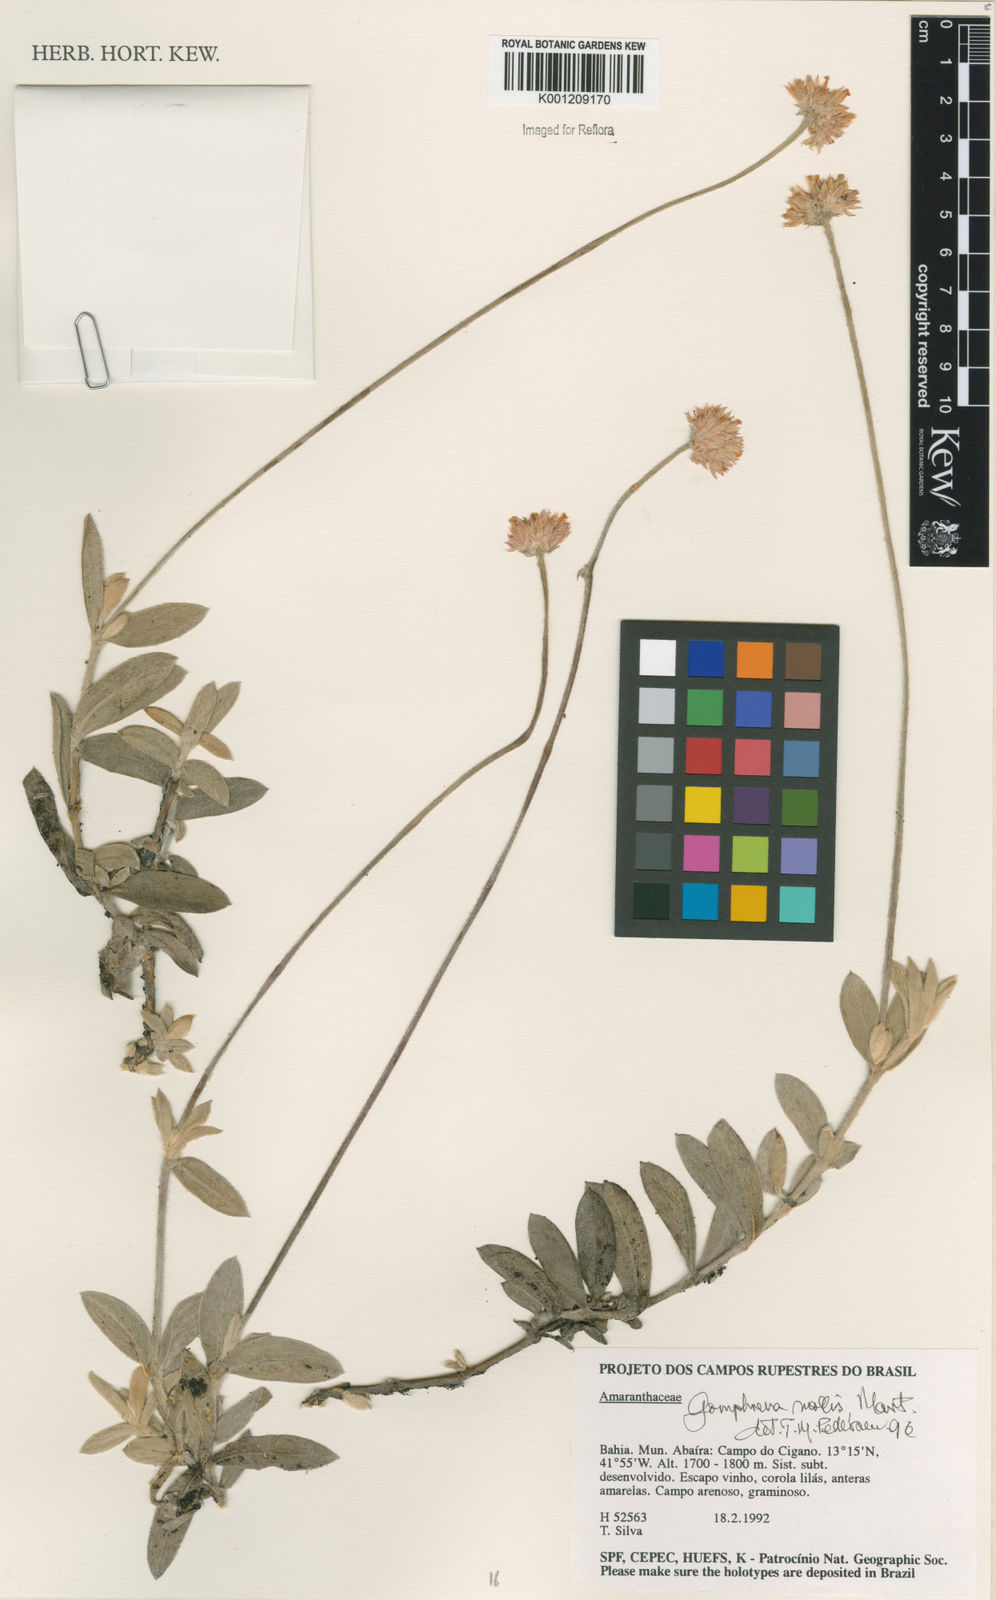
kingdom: Plantae
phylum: Tracheophyta
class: Magnoliopsida
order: Caryophyllales
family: Amaranthaceae
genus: Gomphrena
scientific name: Gomphrena mollis
